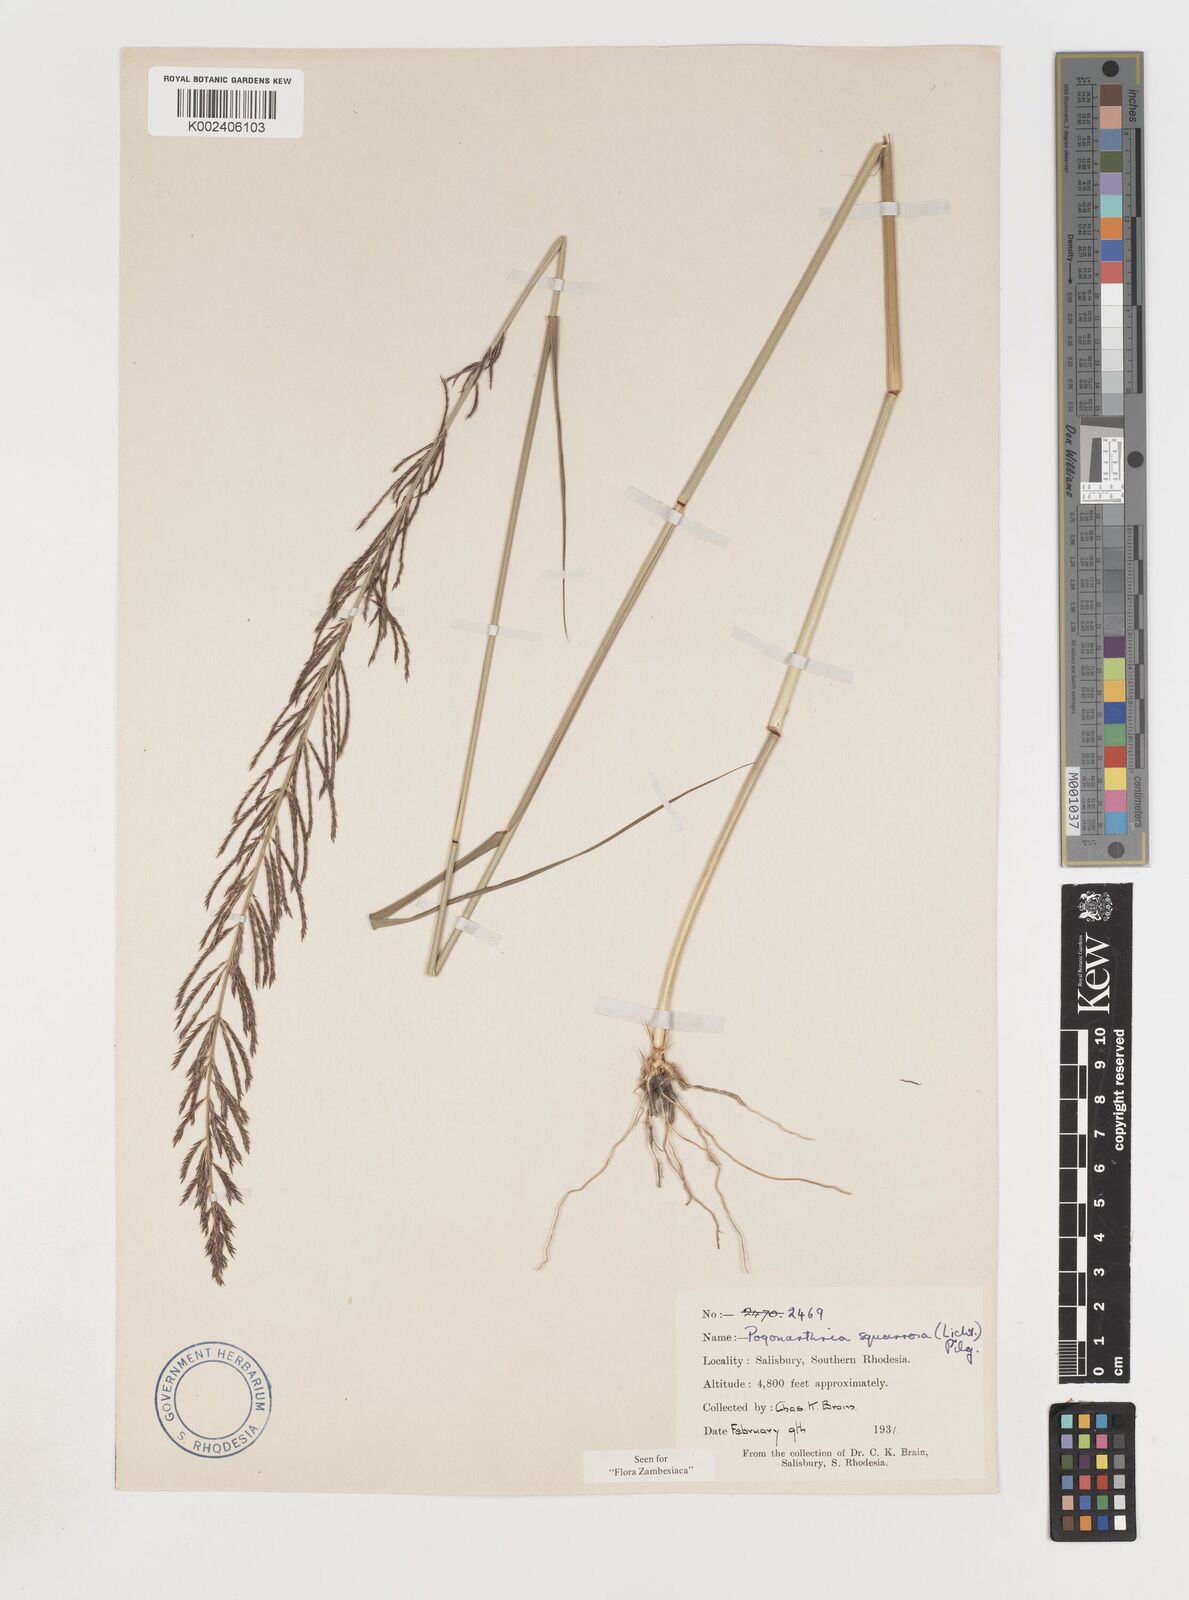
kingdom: Plantae
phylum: Tracheophyta
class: Liliopsida
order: Poales
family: Poaceae
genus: Pogonarthria
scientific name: Pogonarthria squarrosa
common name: Grass
